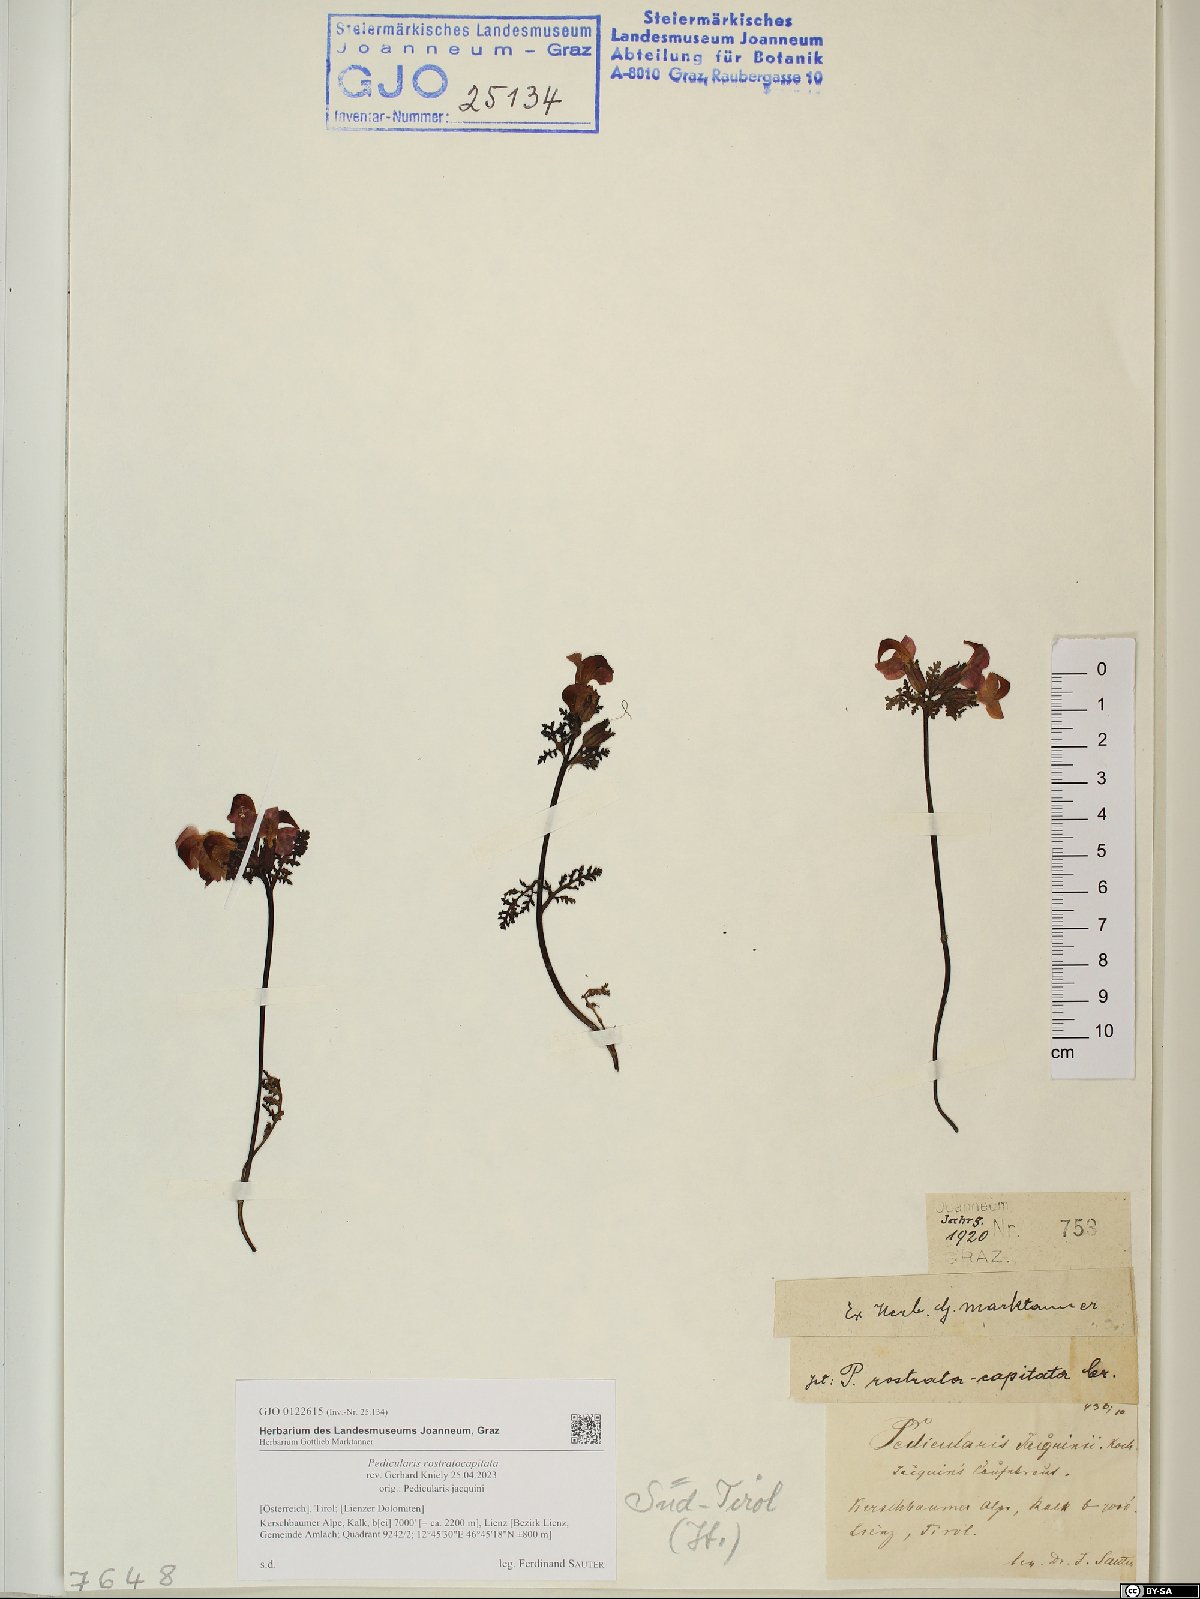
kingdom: Plantae
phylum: Tracheophyta
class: Magnoliopsida
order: Lamiales
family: Orobanchaceae
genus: Pedicularis
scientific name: Pedicularis rostratocapitata
